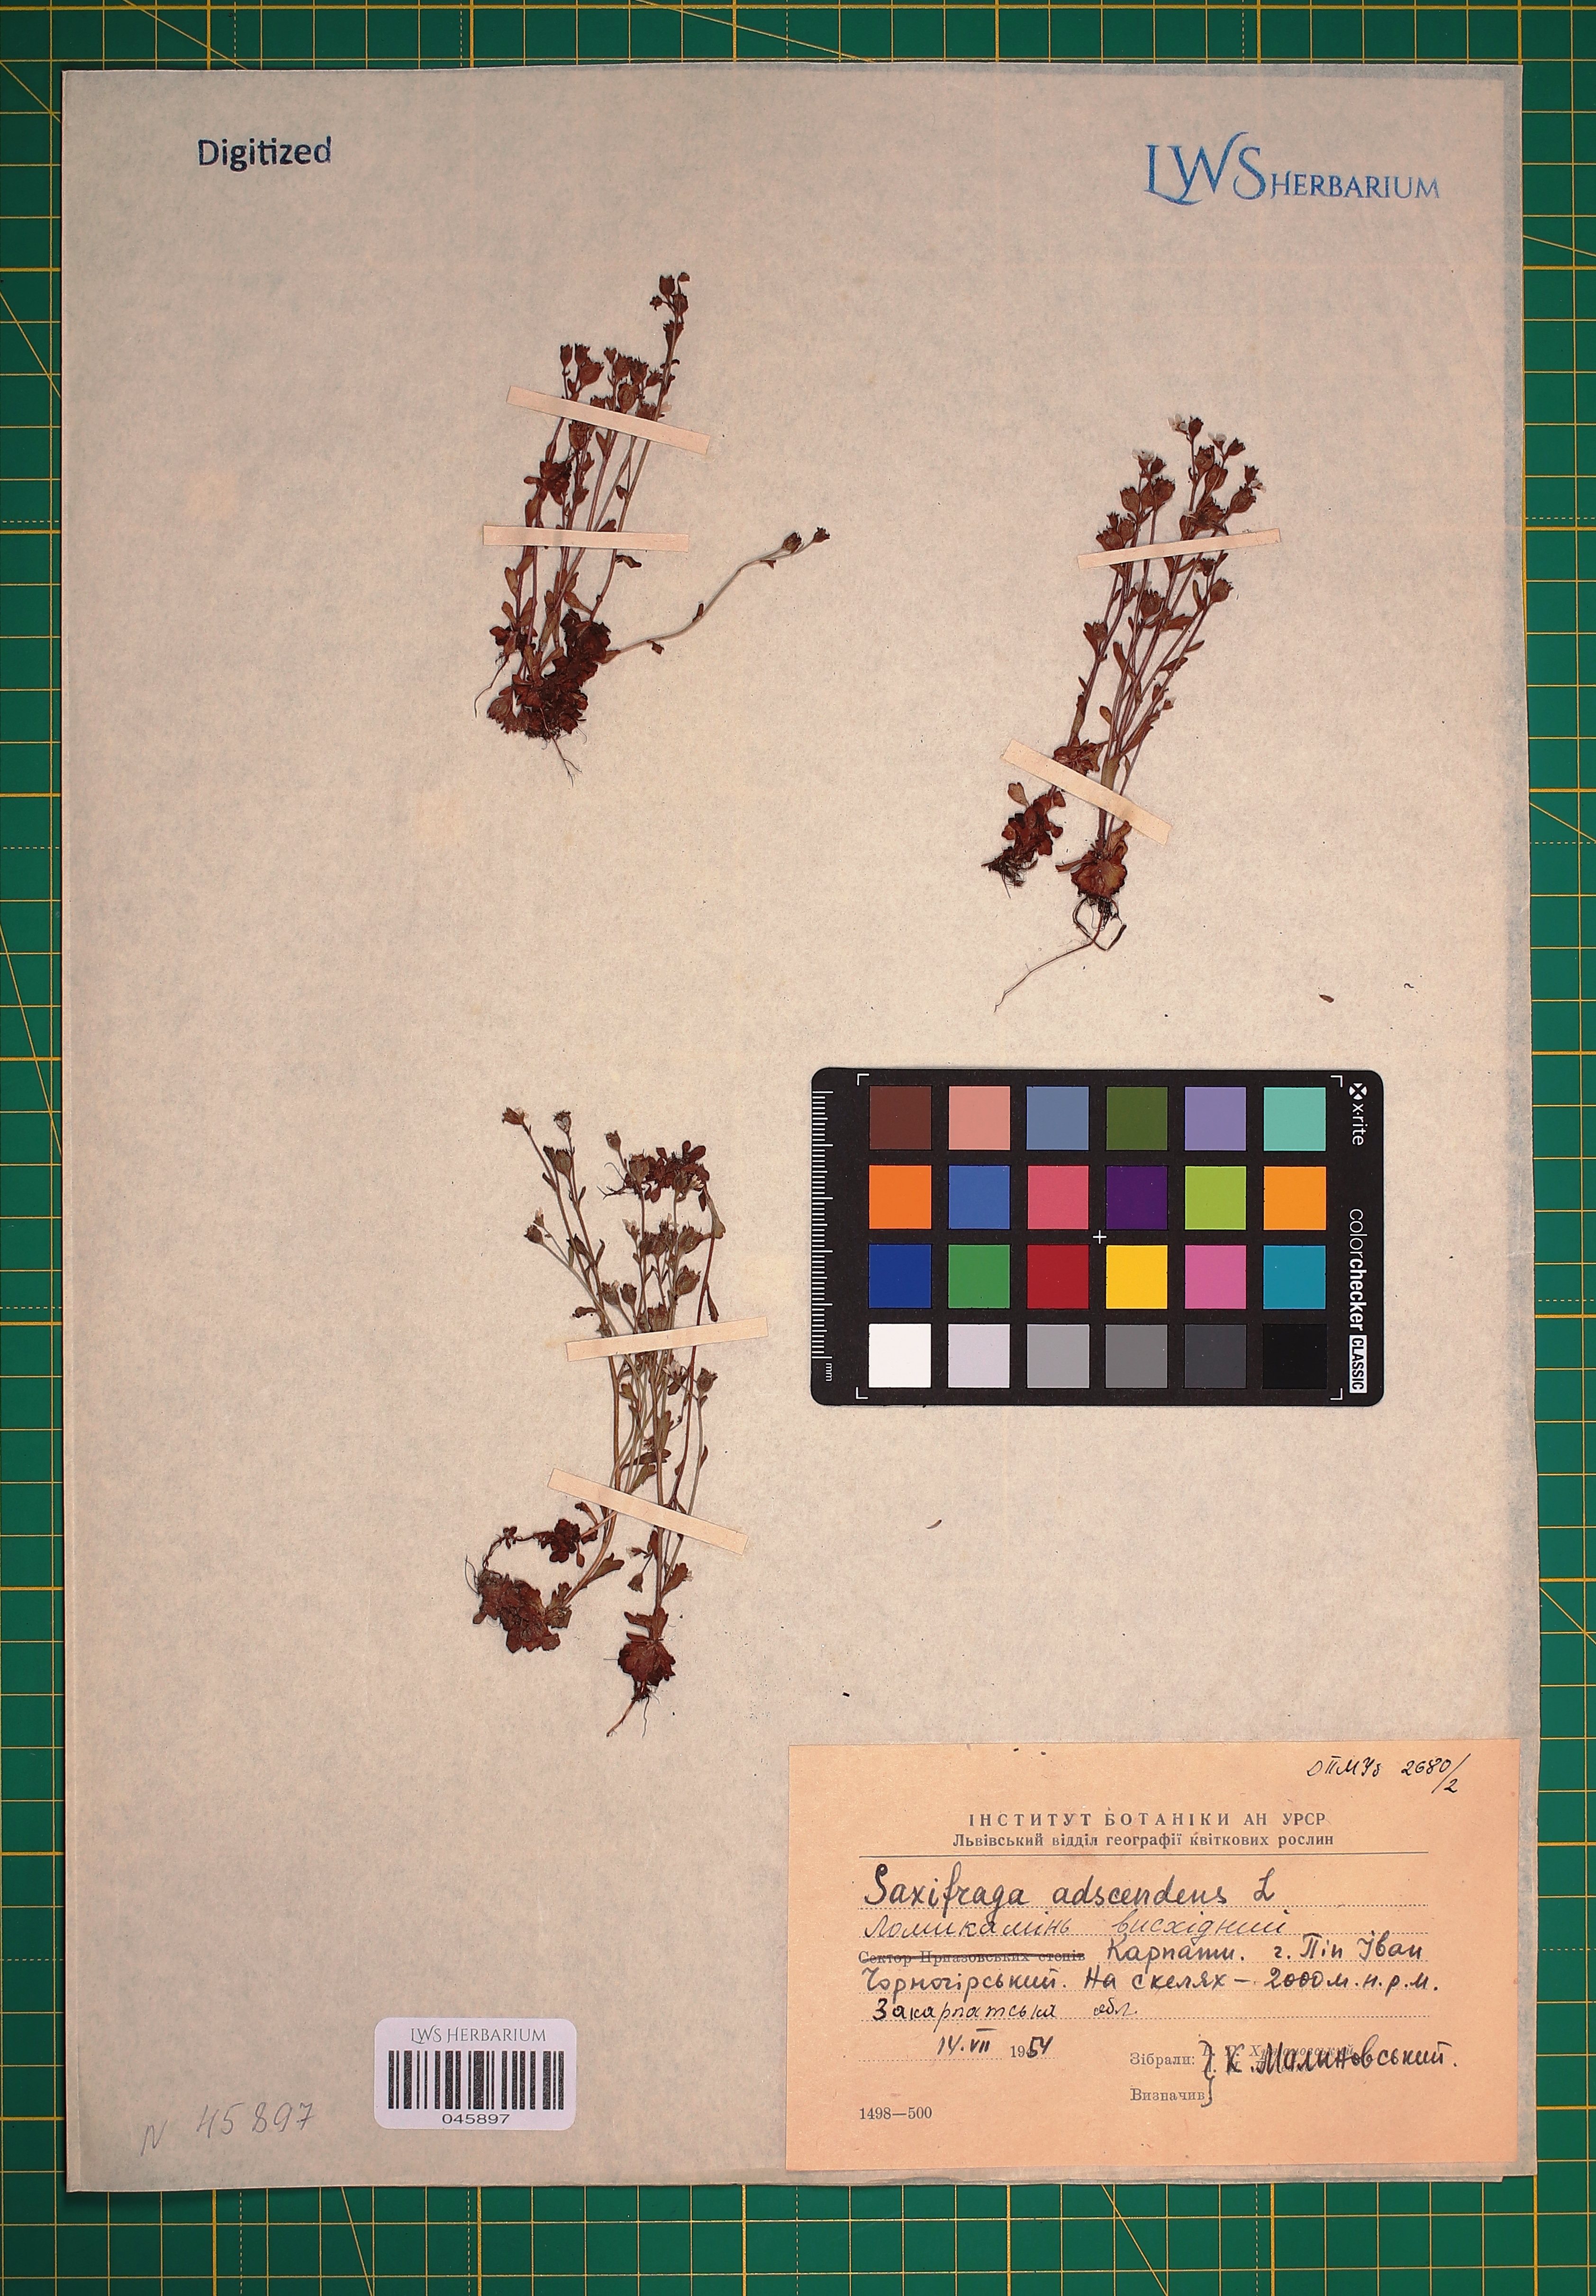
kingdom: Plantae
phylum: Tracheophyta
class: Magnoliopsida
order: Saxifragales
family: Saxifragaceae
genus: Saxifraga
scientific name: Saxifraga adscendens
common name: Ascending saxifrage
